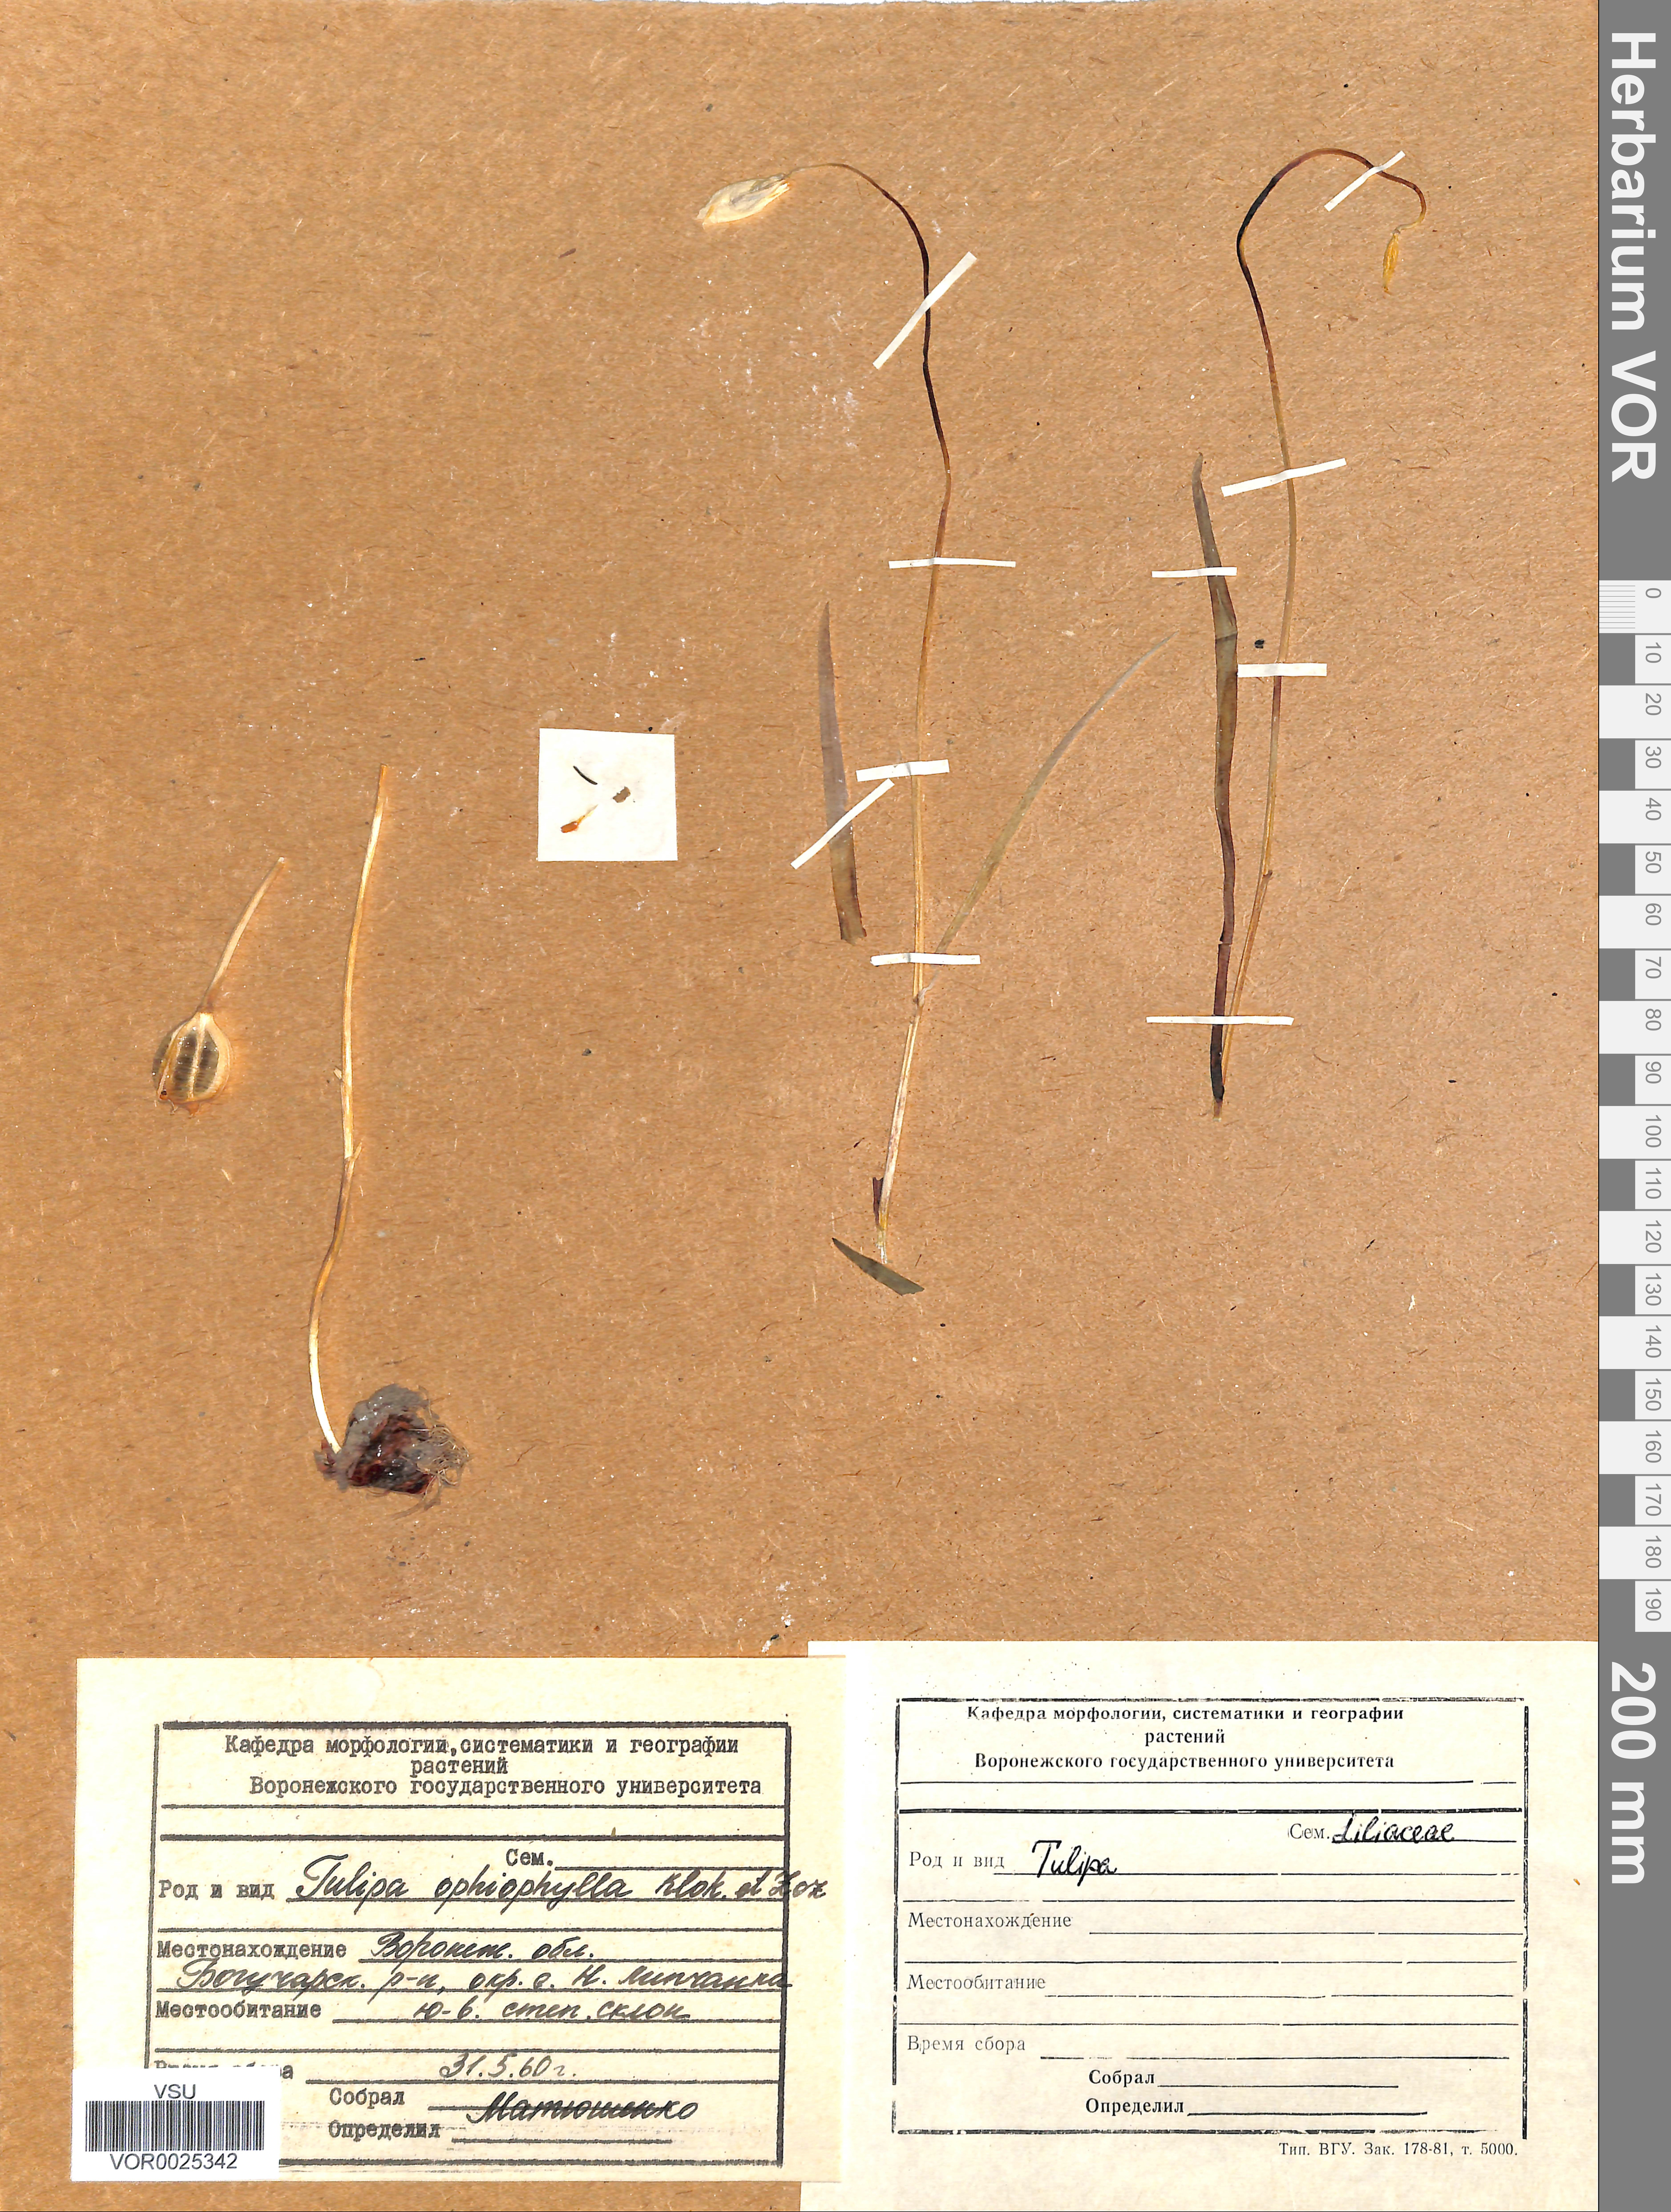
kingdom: Plantae
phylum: Tracheophyta
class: Liliopsida
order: Liliales
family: Liliaceae
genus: Tulipa
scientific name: Tulipa sylvestris
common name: Wild tulip
